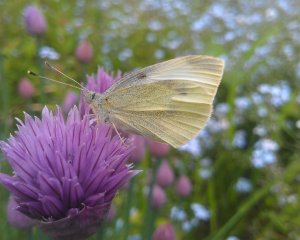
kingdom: Animalia
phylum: Arthropoda
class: Insecta
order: Lepidoptera
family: Pieridae
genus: Pieris
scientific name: Pieris rapae
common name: Cabbage White
